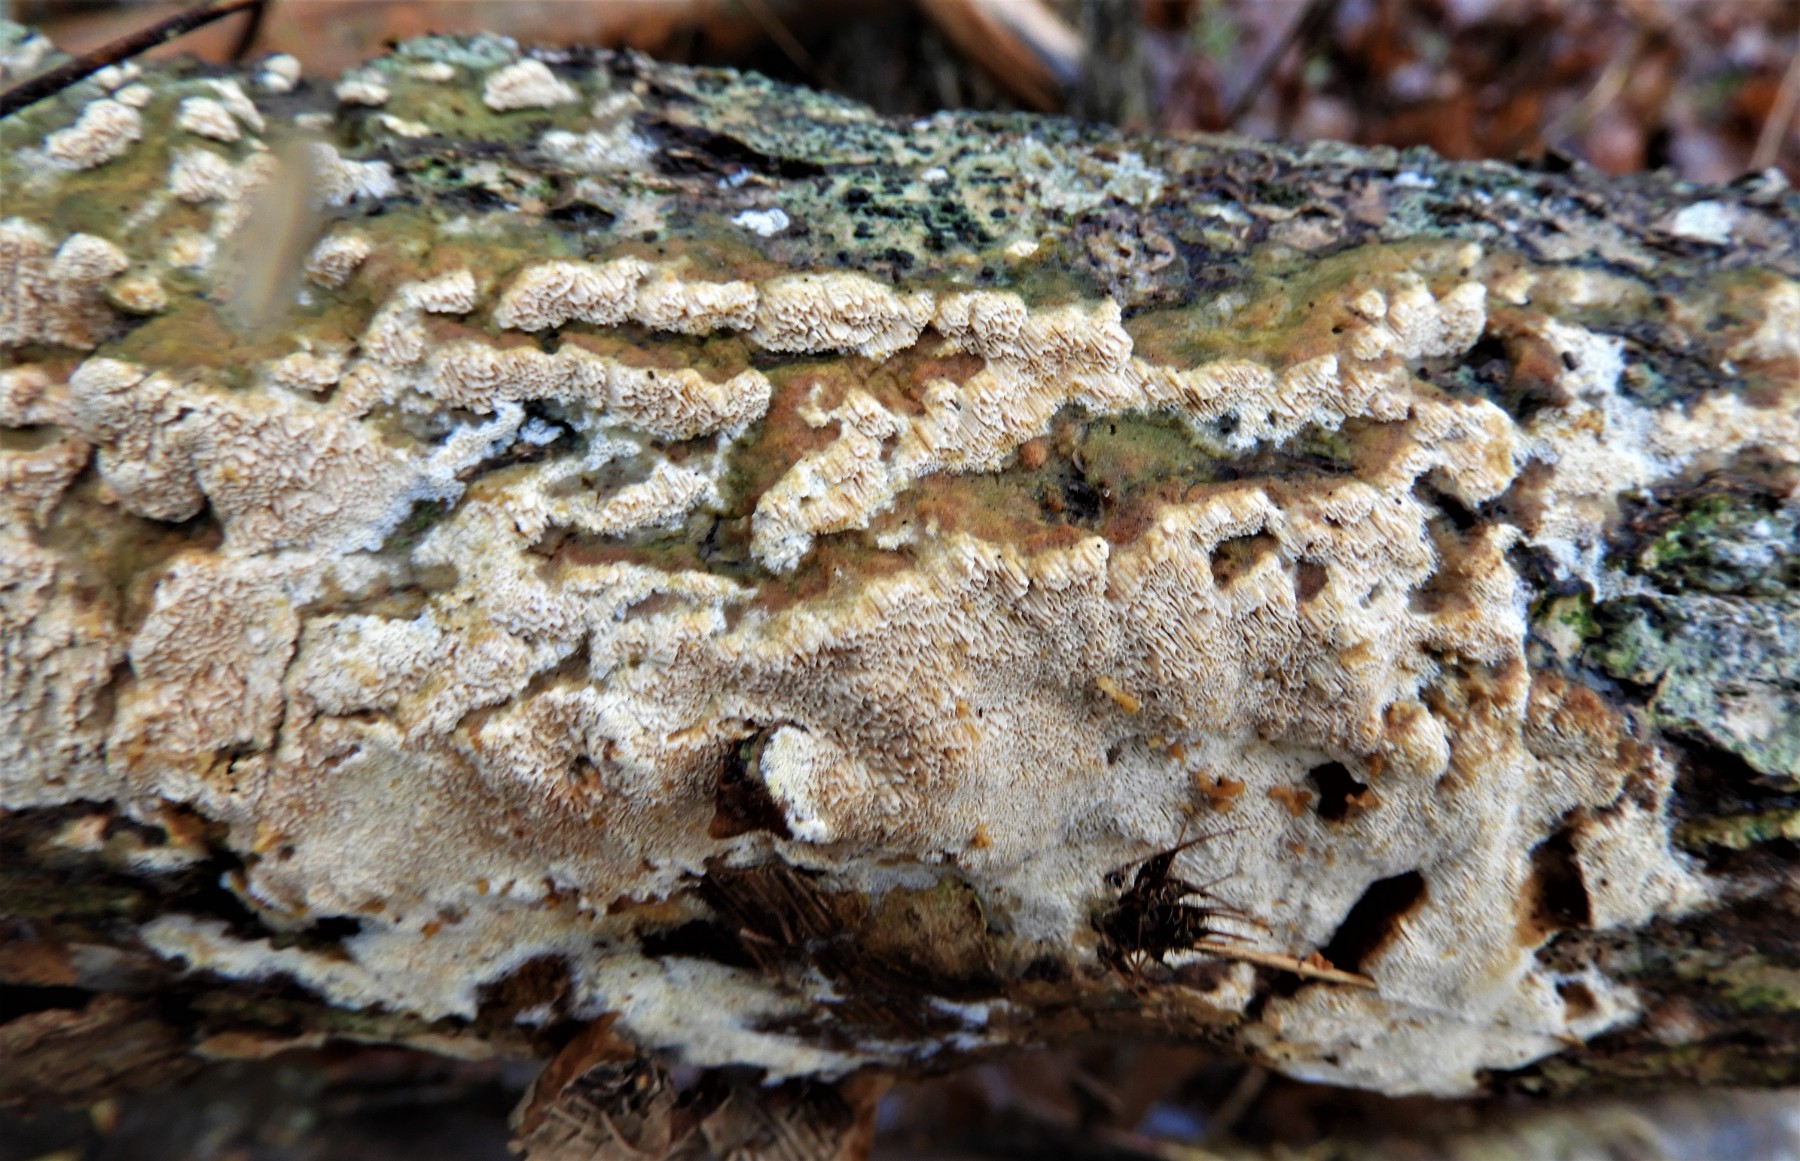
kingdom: Fungi
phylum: Basidiomycota
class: Agaricomycetes
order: Hymenochaetales
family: Schizoporaceae
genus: Xylodon
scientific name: Xylodon
